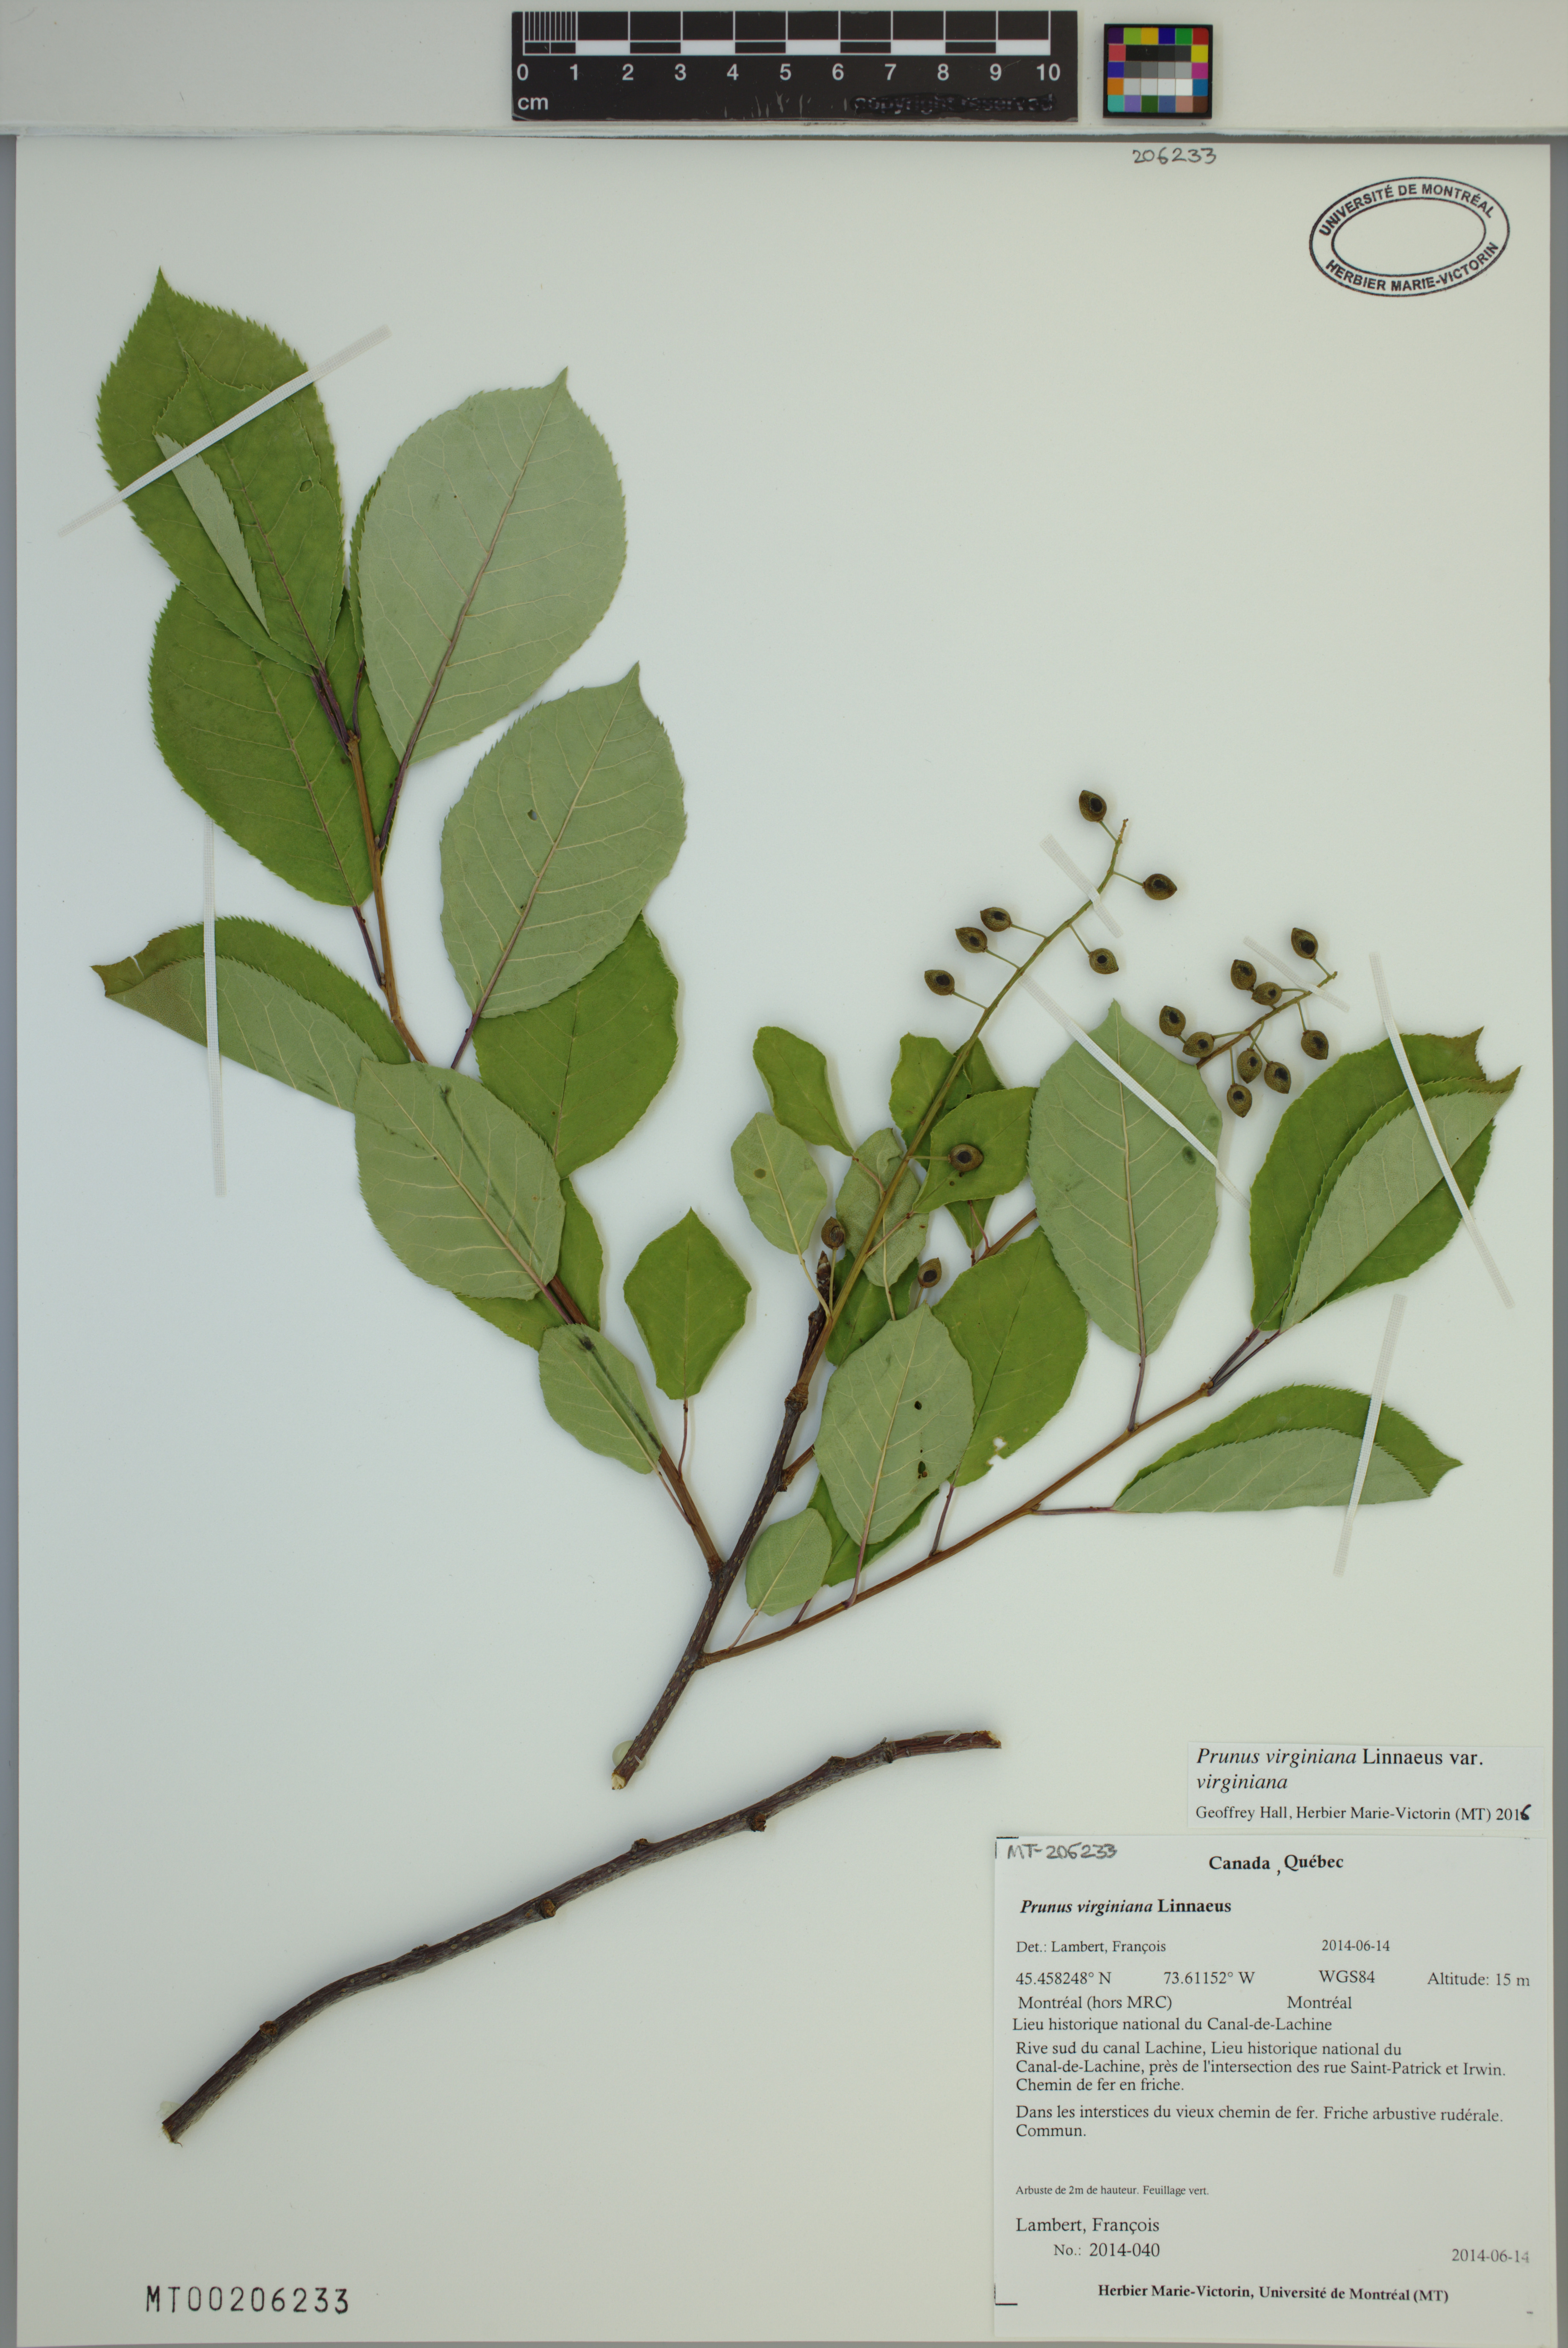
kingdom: Plantae
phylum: Tracheophyta
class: Magnoliopsida
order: Rosales
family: Rosaceae
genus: Prunus
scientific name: Prunus virginiana
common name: Chokecherry
